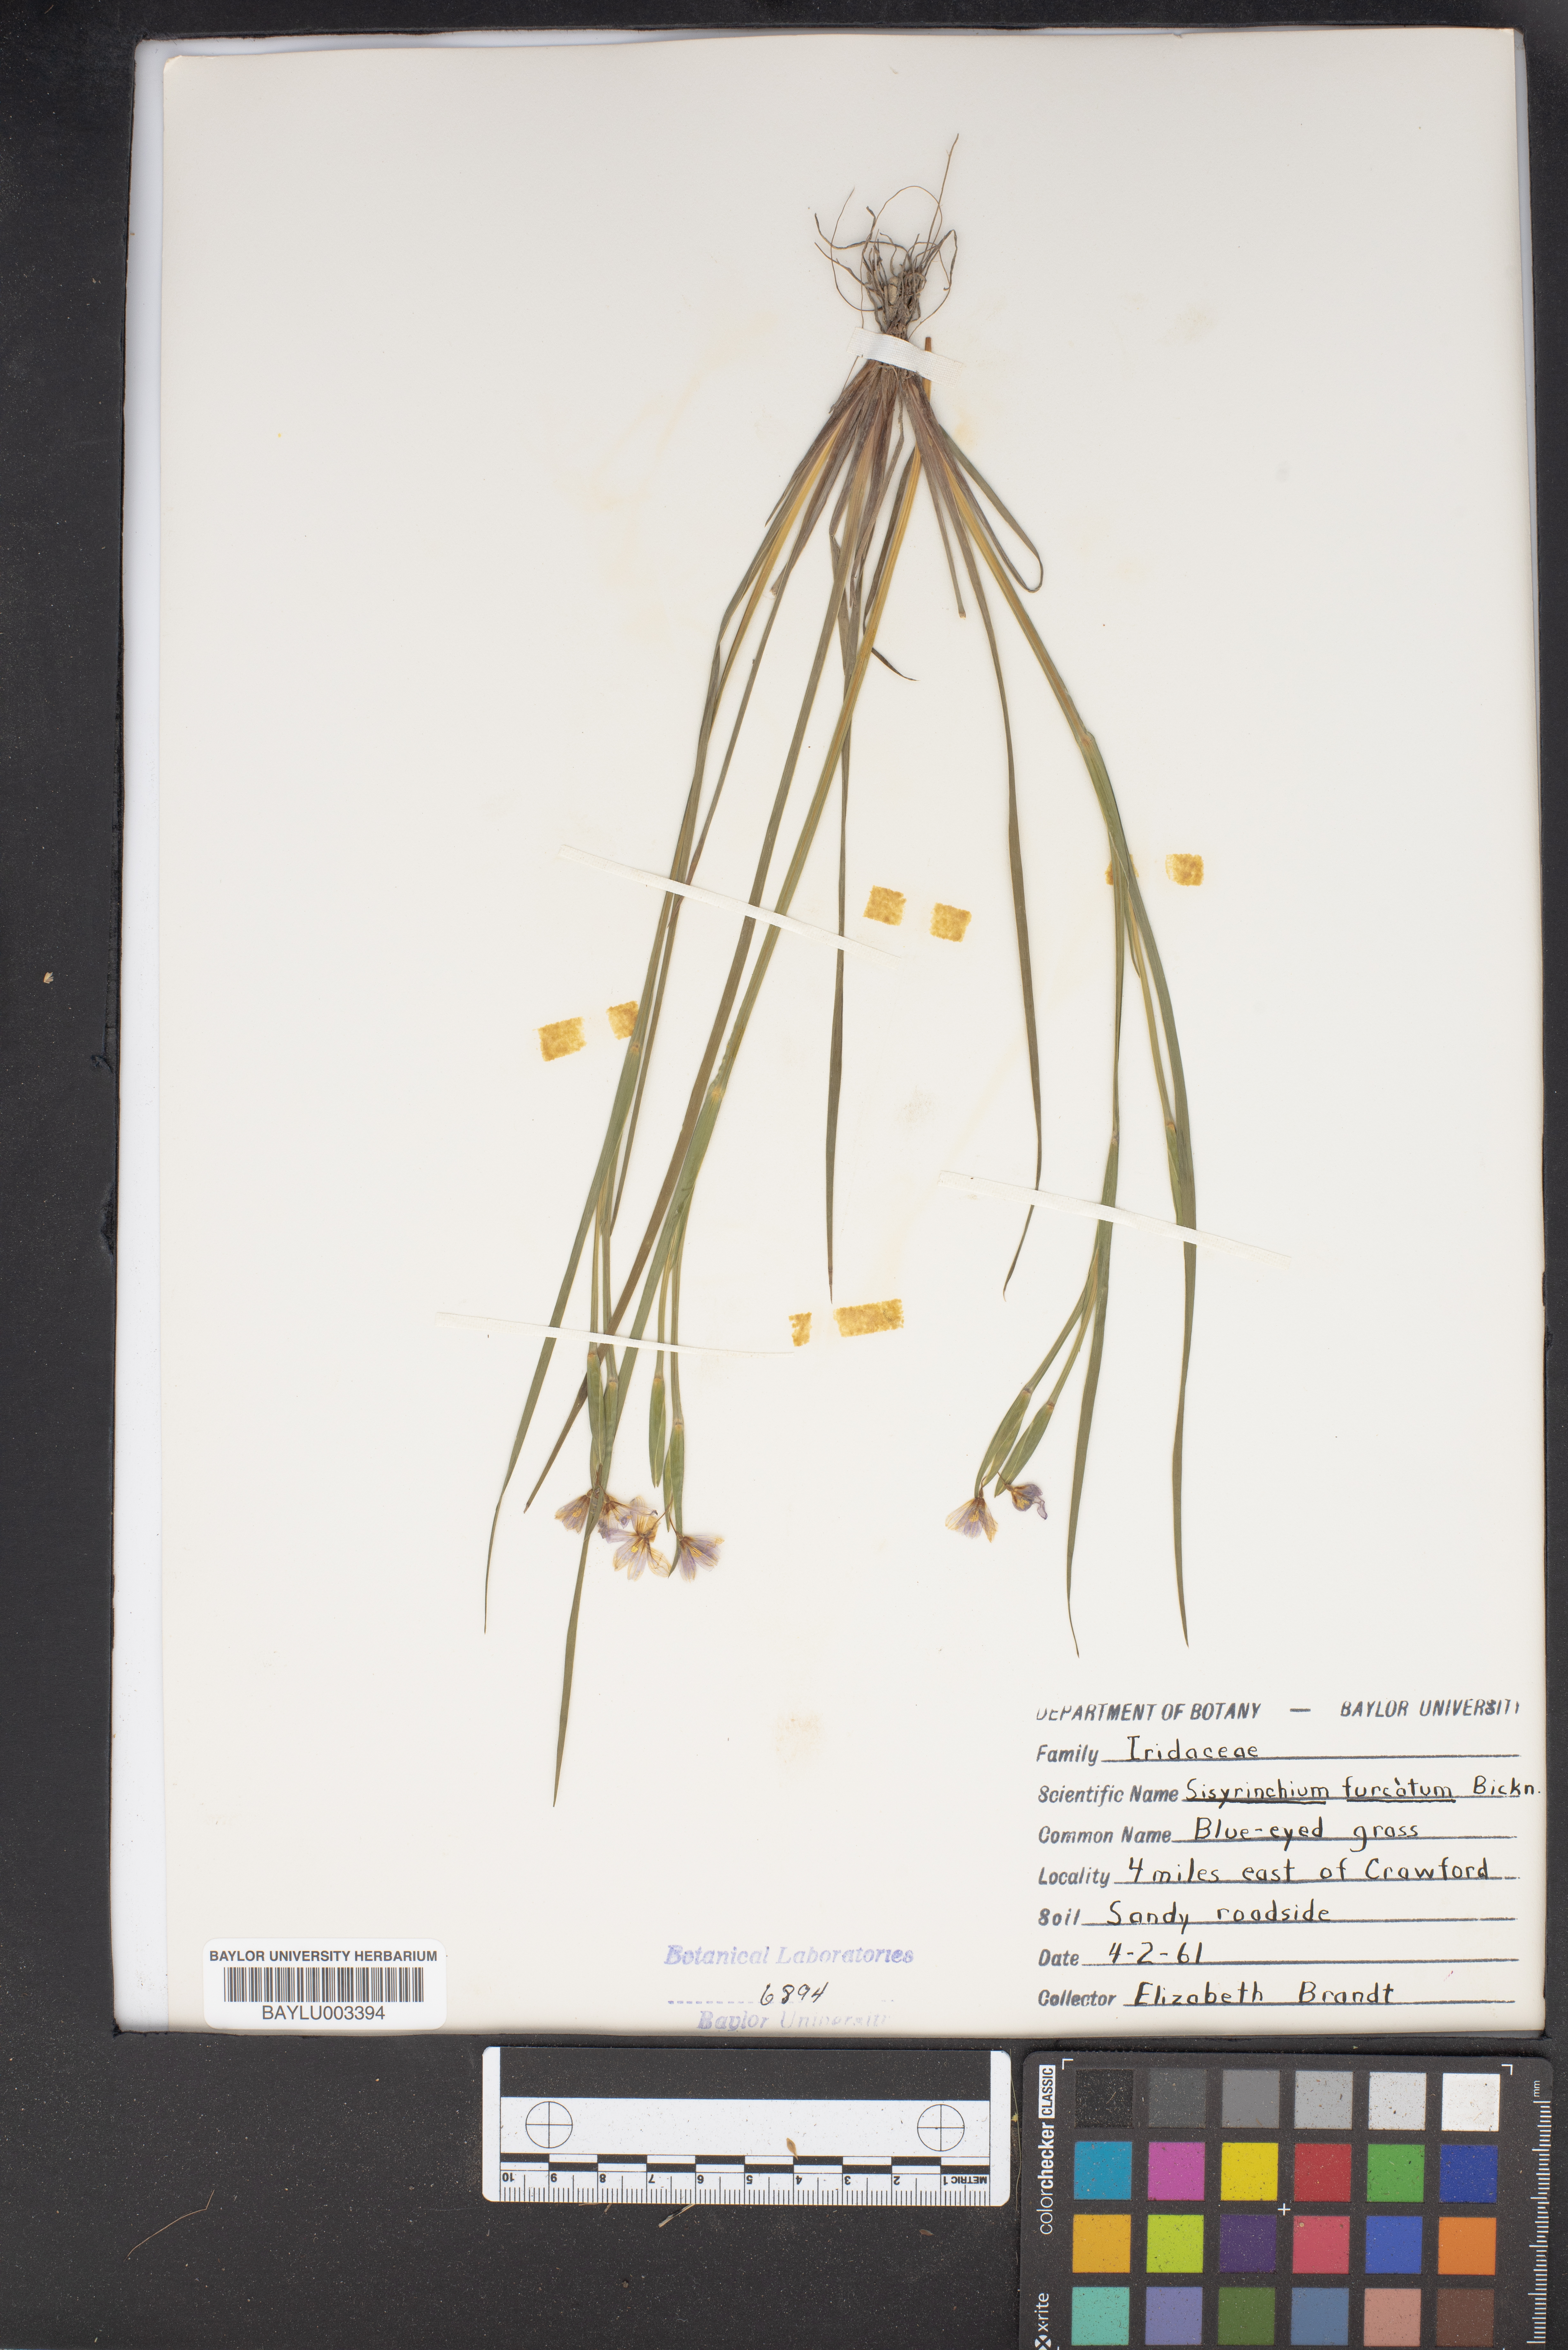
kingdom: Plantae
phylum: Tracheophyta
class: Liliopsida
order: Asparagales
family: Iridaceae
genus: Sisyrinchium
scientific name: Sisyrinchium langloisii
